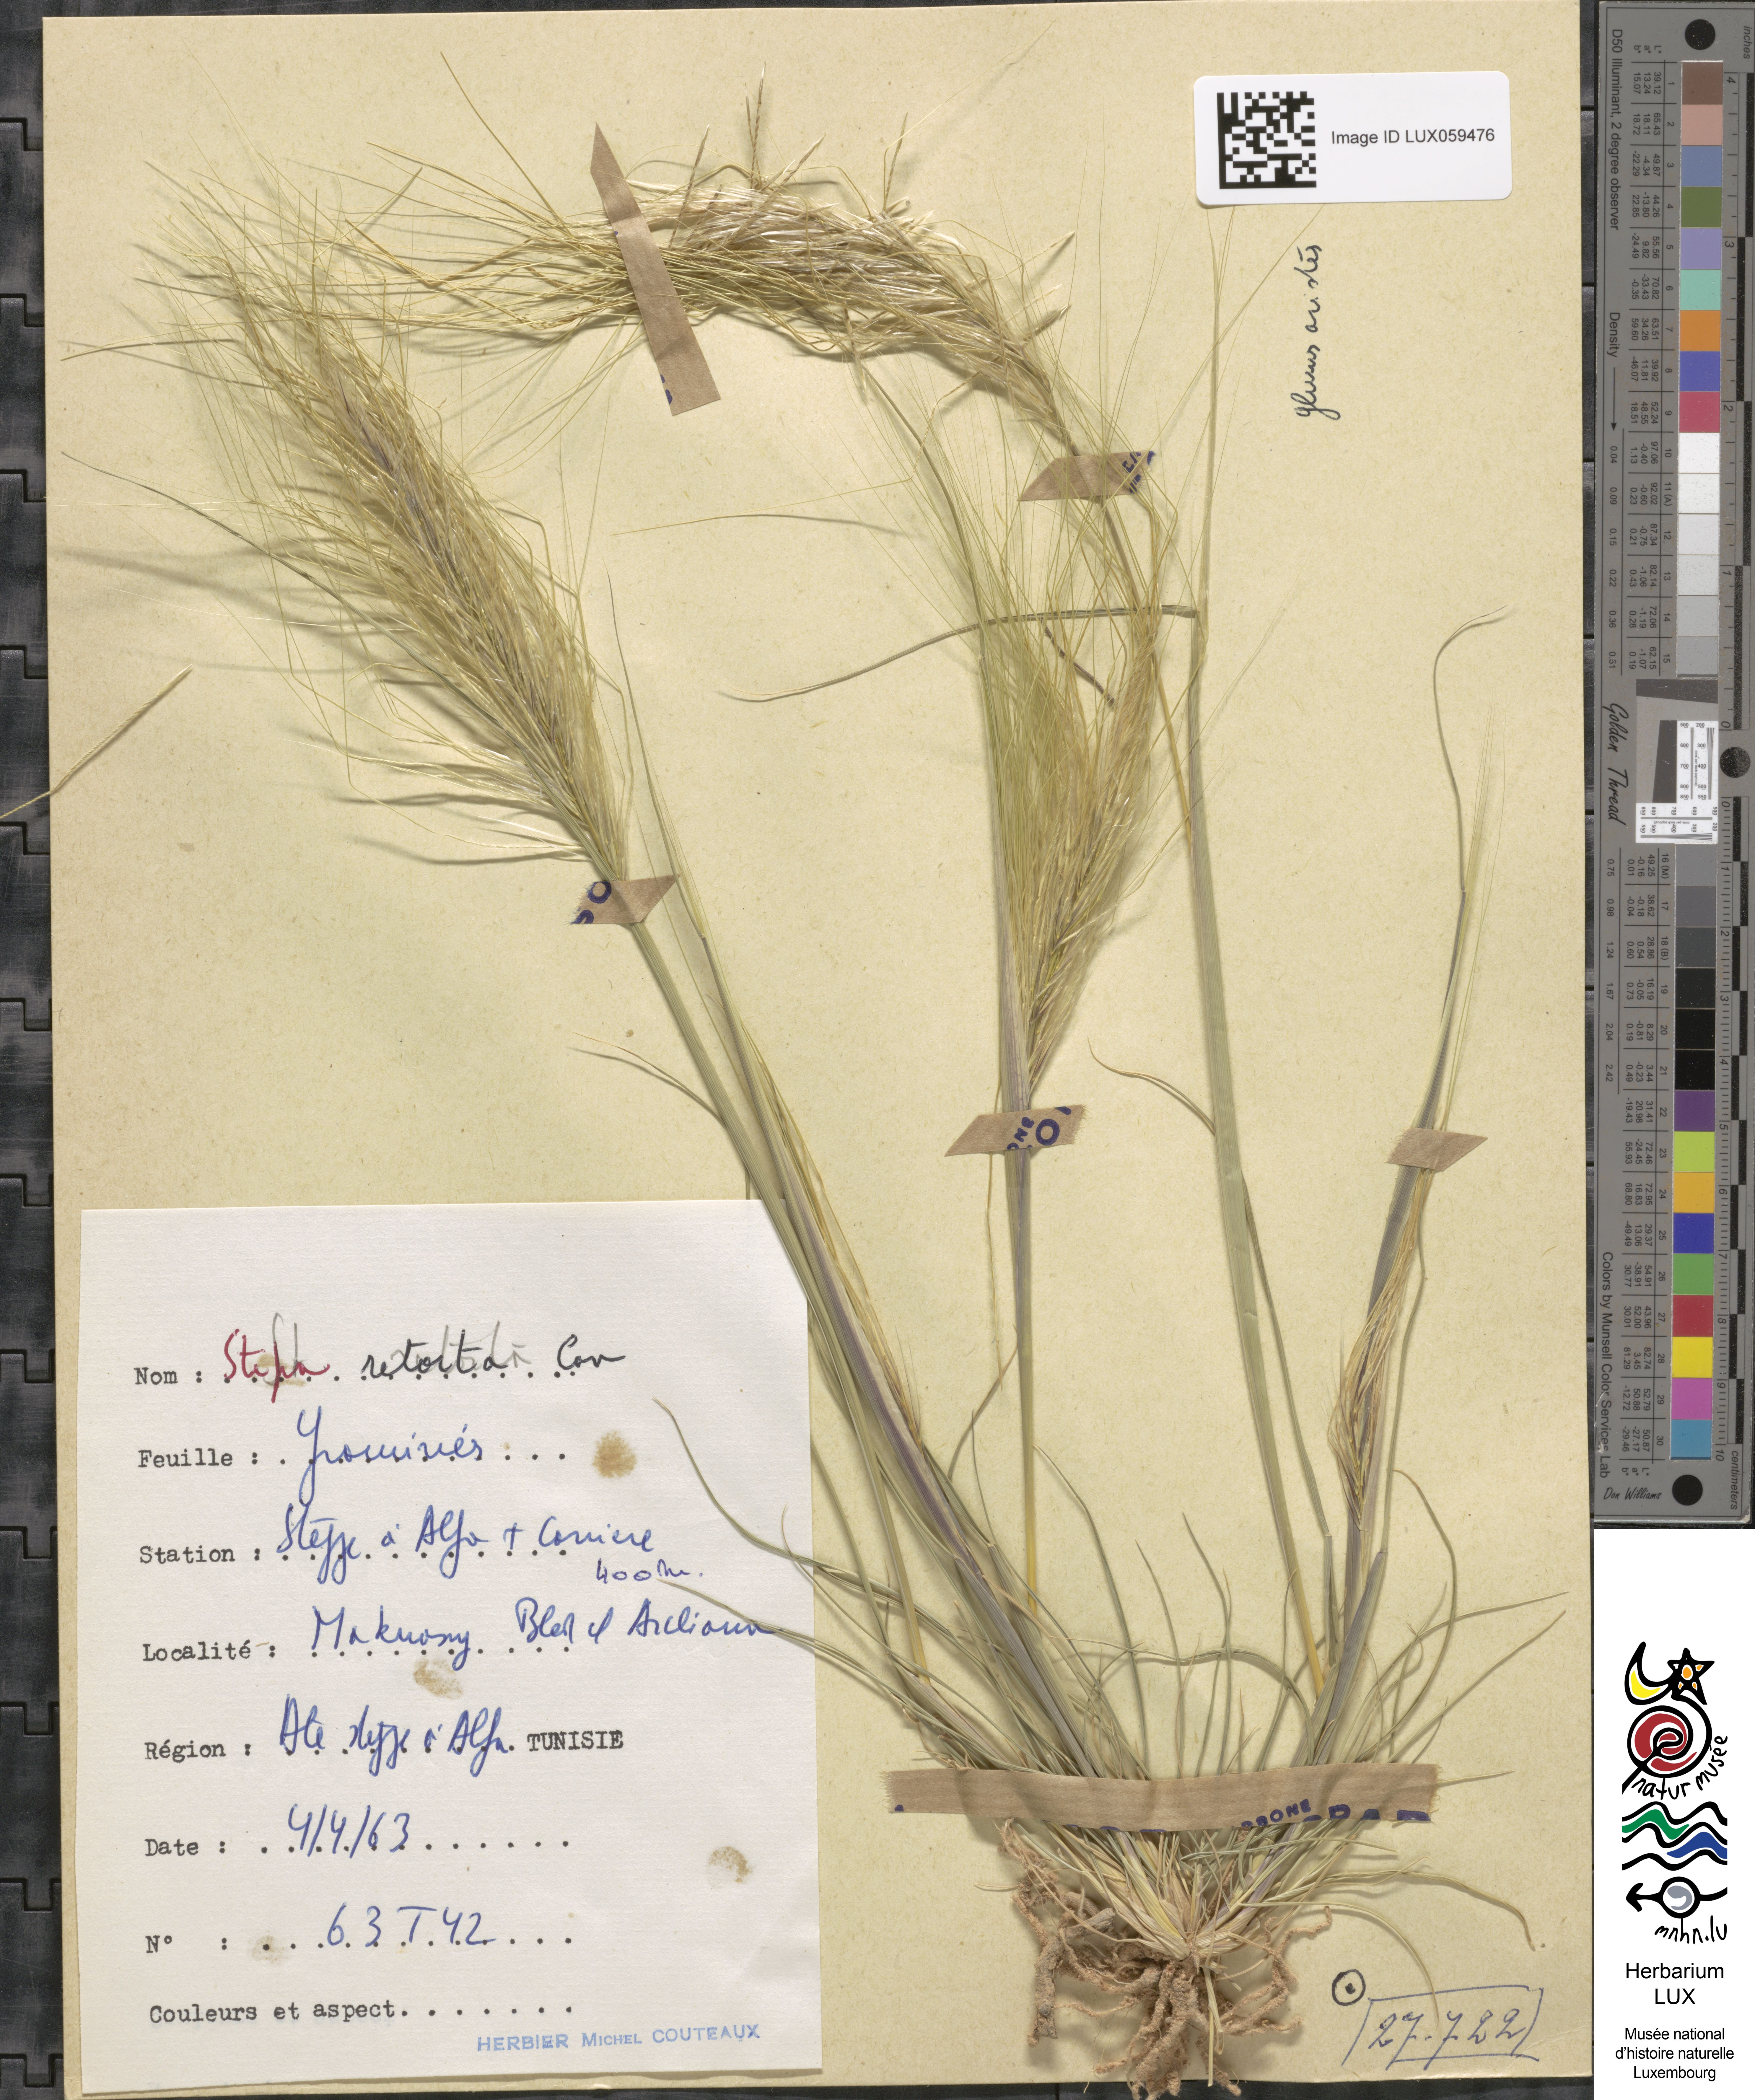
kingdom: Plantae
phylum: Tracheophyta
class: Liliopsida
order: Poales
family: Poaceae
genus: Stipellula
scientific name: Stipellula capensis
